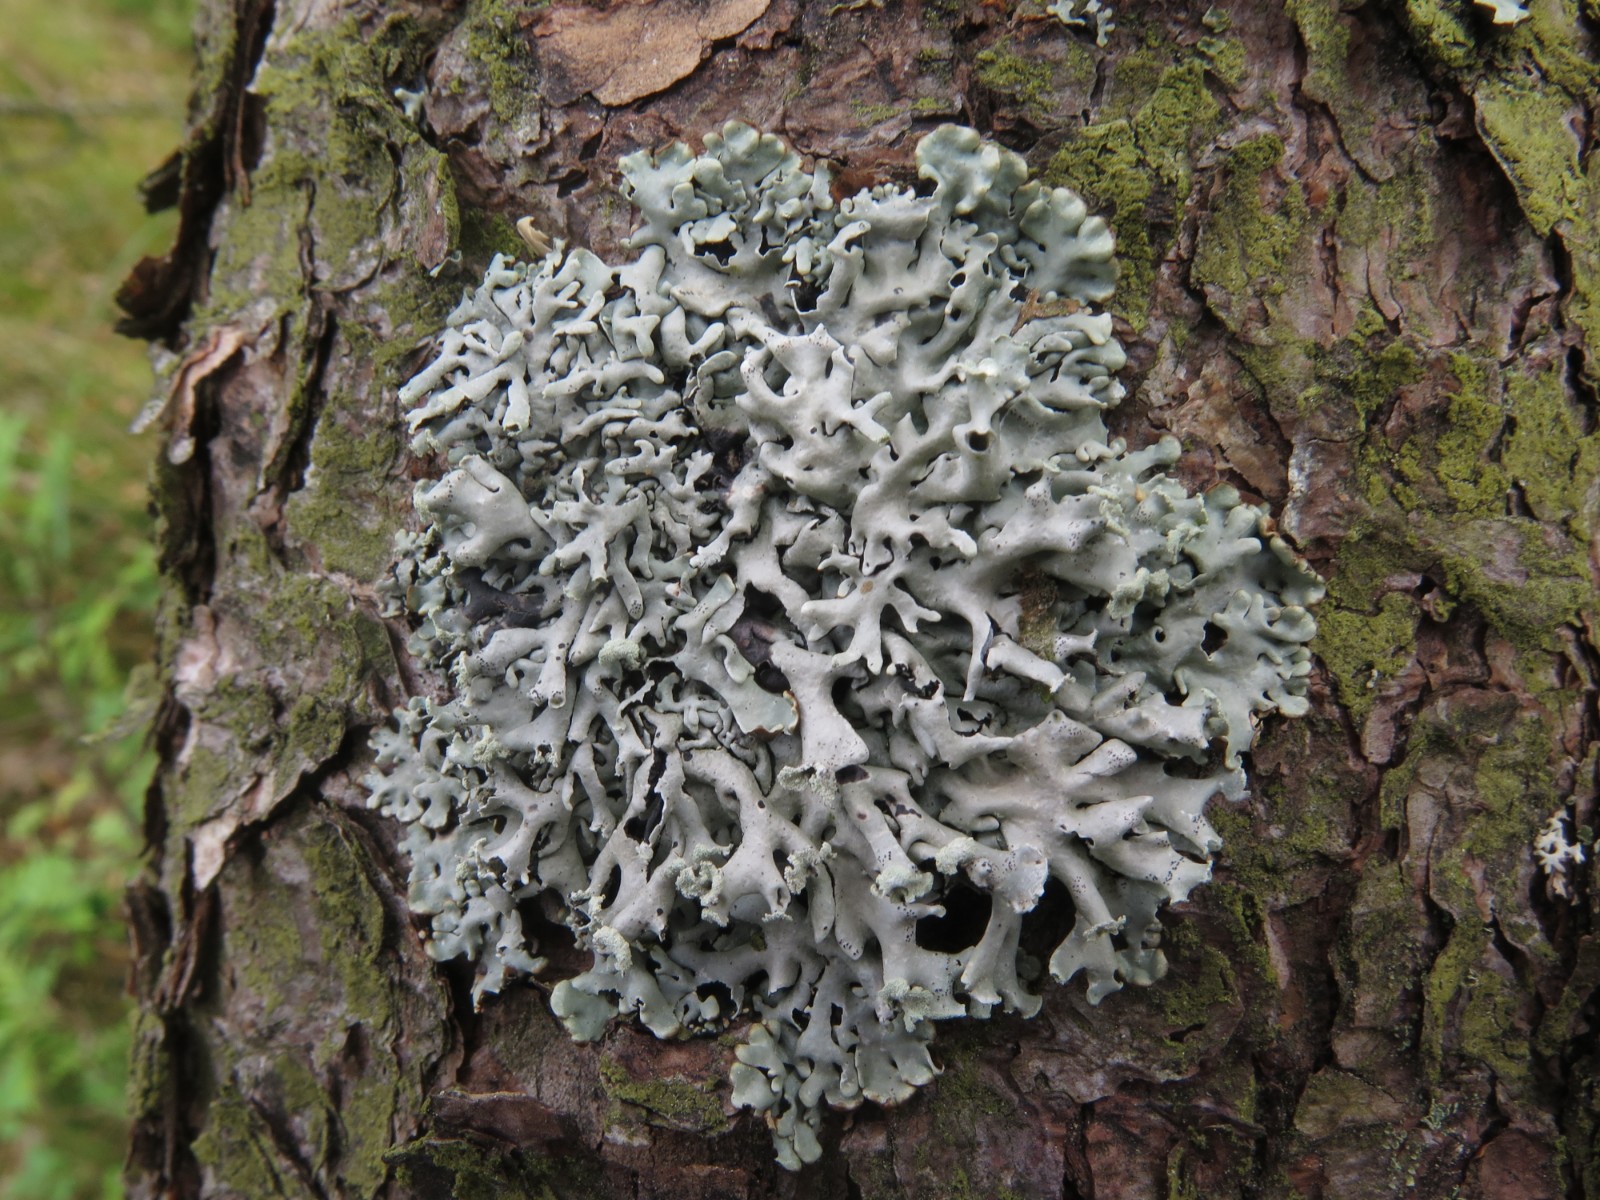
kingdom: Fungi
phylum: Ascomycota
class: Lecanoromycetes
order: Lecanorales
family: Parmeliaceae
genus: Hypogymnia
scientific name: Hypogymnia physodes
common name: almindelig kvistlav
